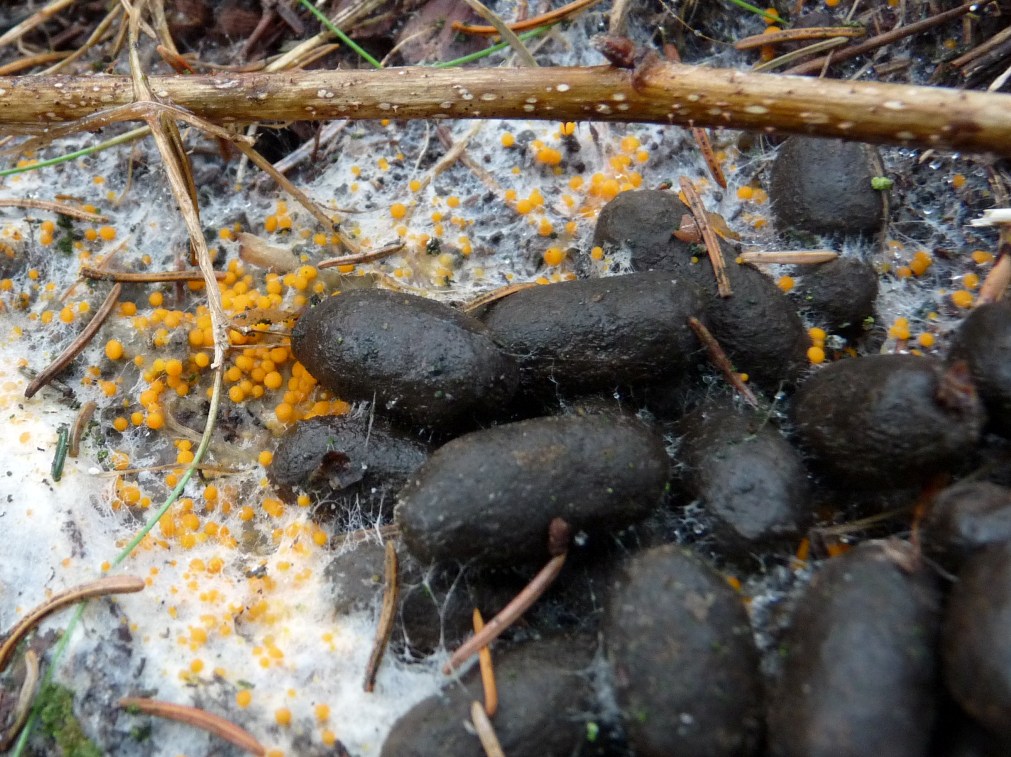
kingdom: Fungi
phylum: Ascomycota
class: Pezizomycetes
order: Pezizales
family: Pyronemataceae
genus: Byssonectria
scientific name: Byssonectria terrestris
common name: hjortebæger
